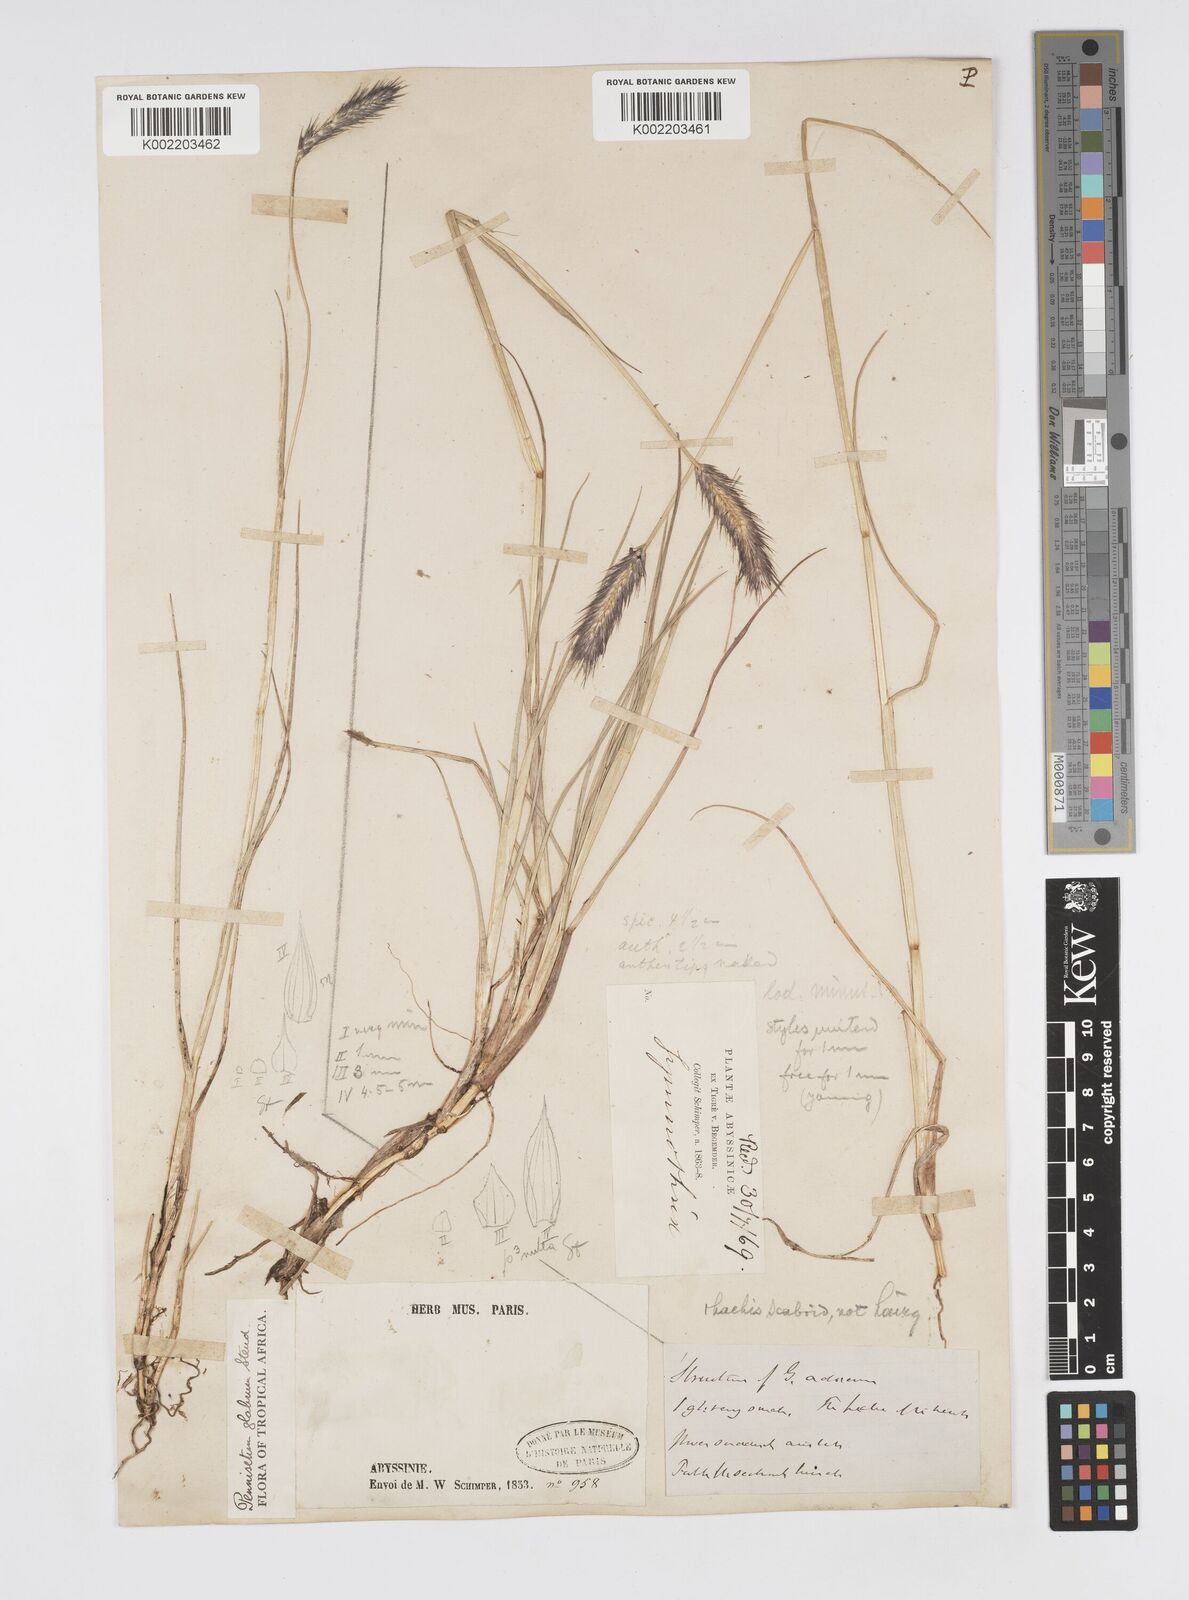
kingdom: Plantae
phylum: Tracheophyta
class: Liliopsida
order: Poales
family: Poaceae
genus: Cenchrus
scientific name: Cenchrus geniculatus
